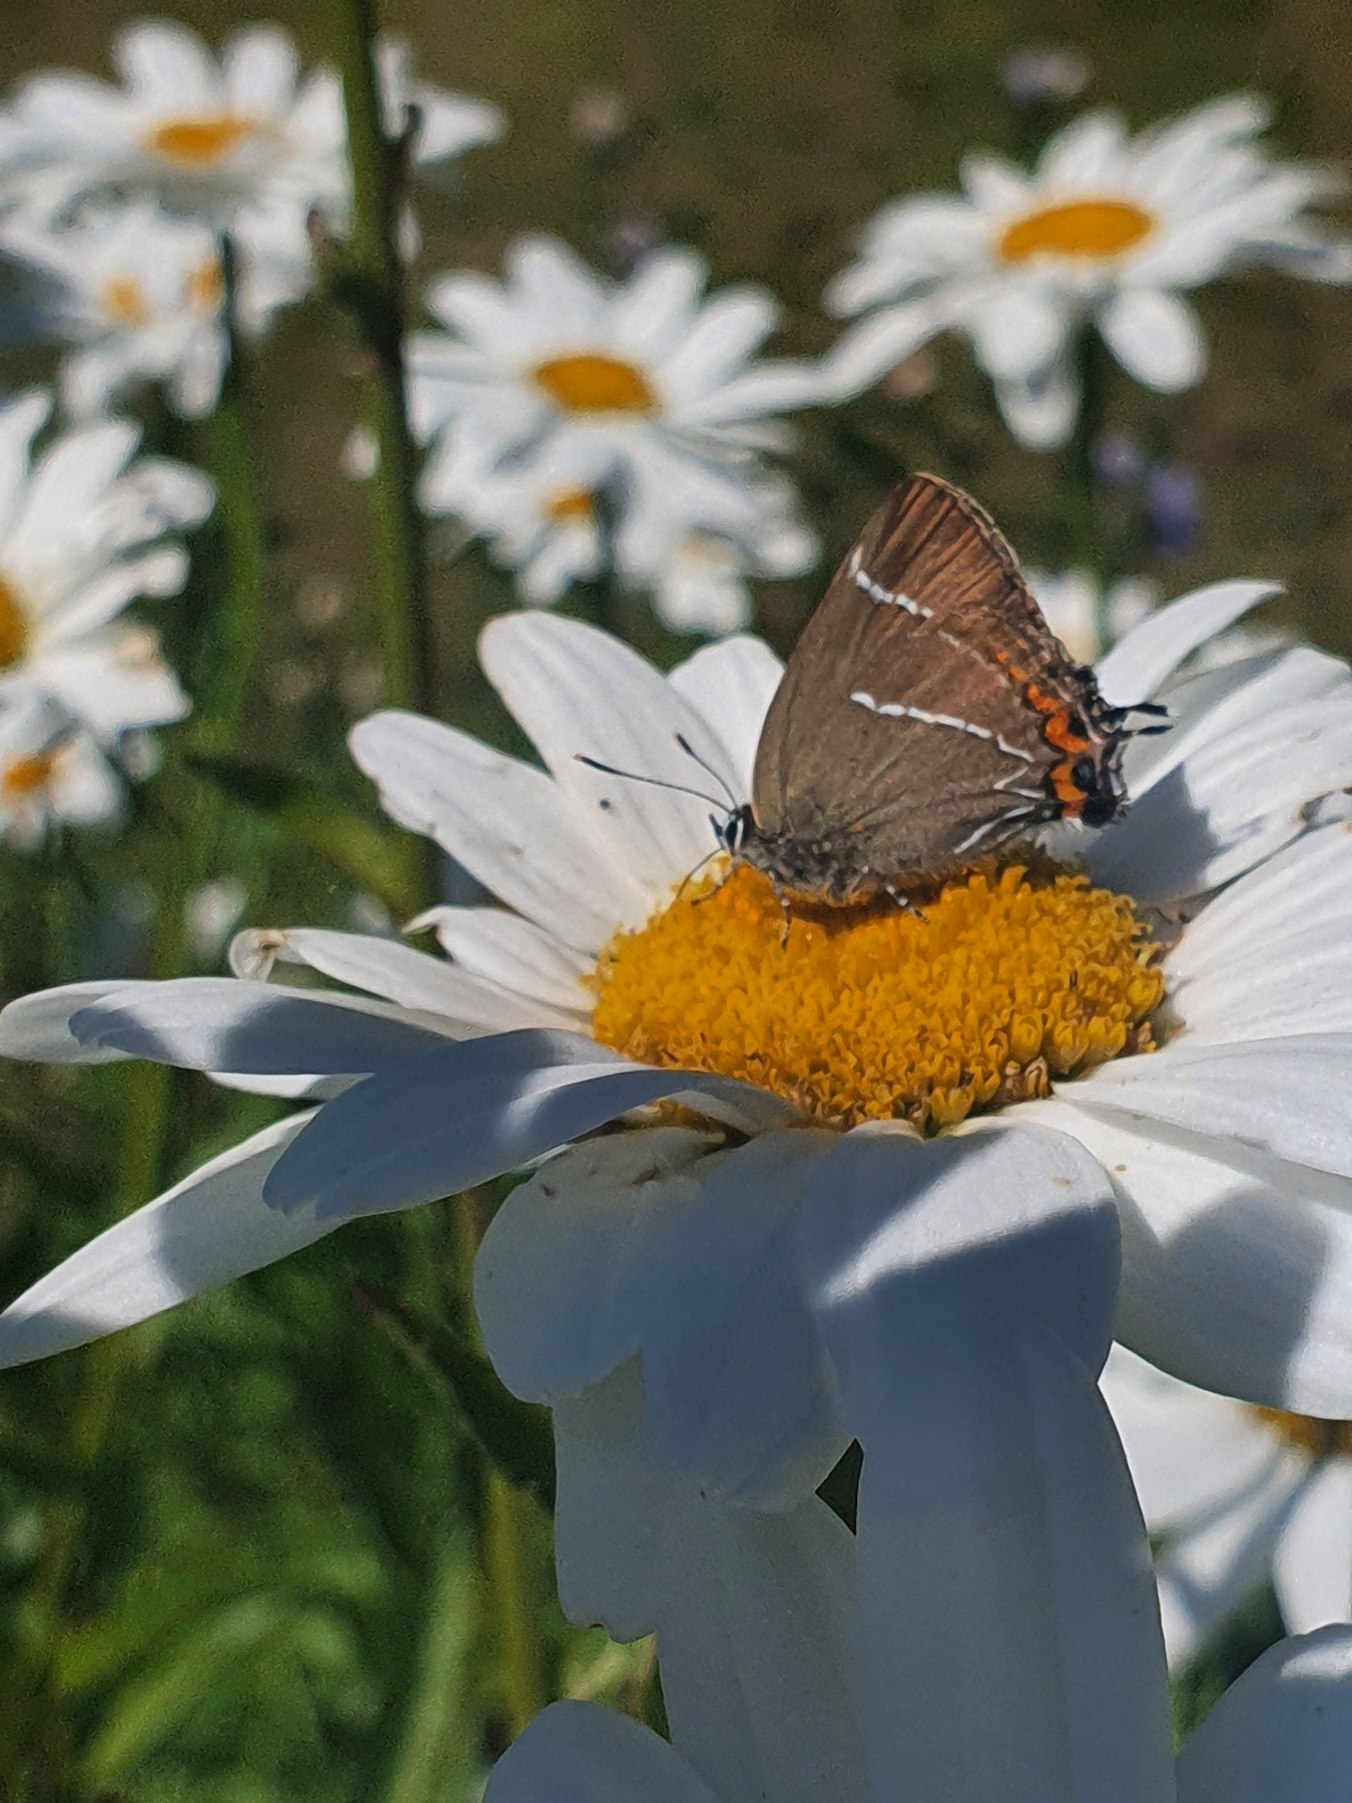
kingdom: Animalia
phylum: Arthropoda
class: Insecta
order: Lepidoptera
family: Lycaenidae
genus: Satyrium
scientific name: Satyrium w-album
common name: Det hvide W
